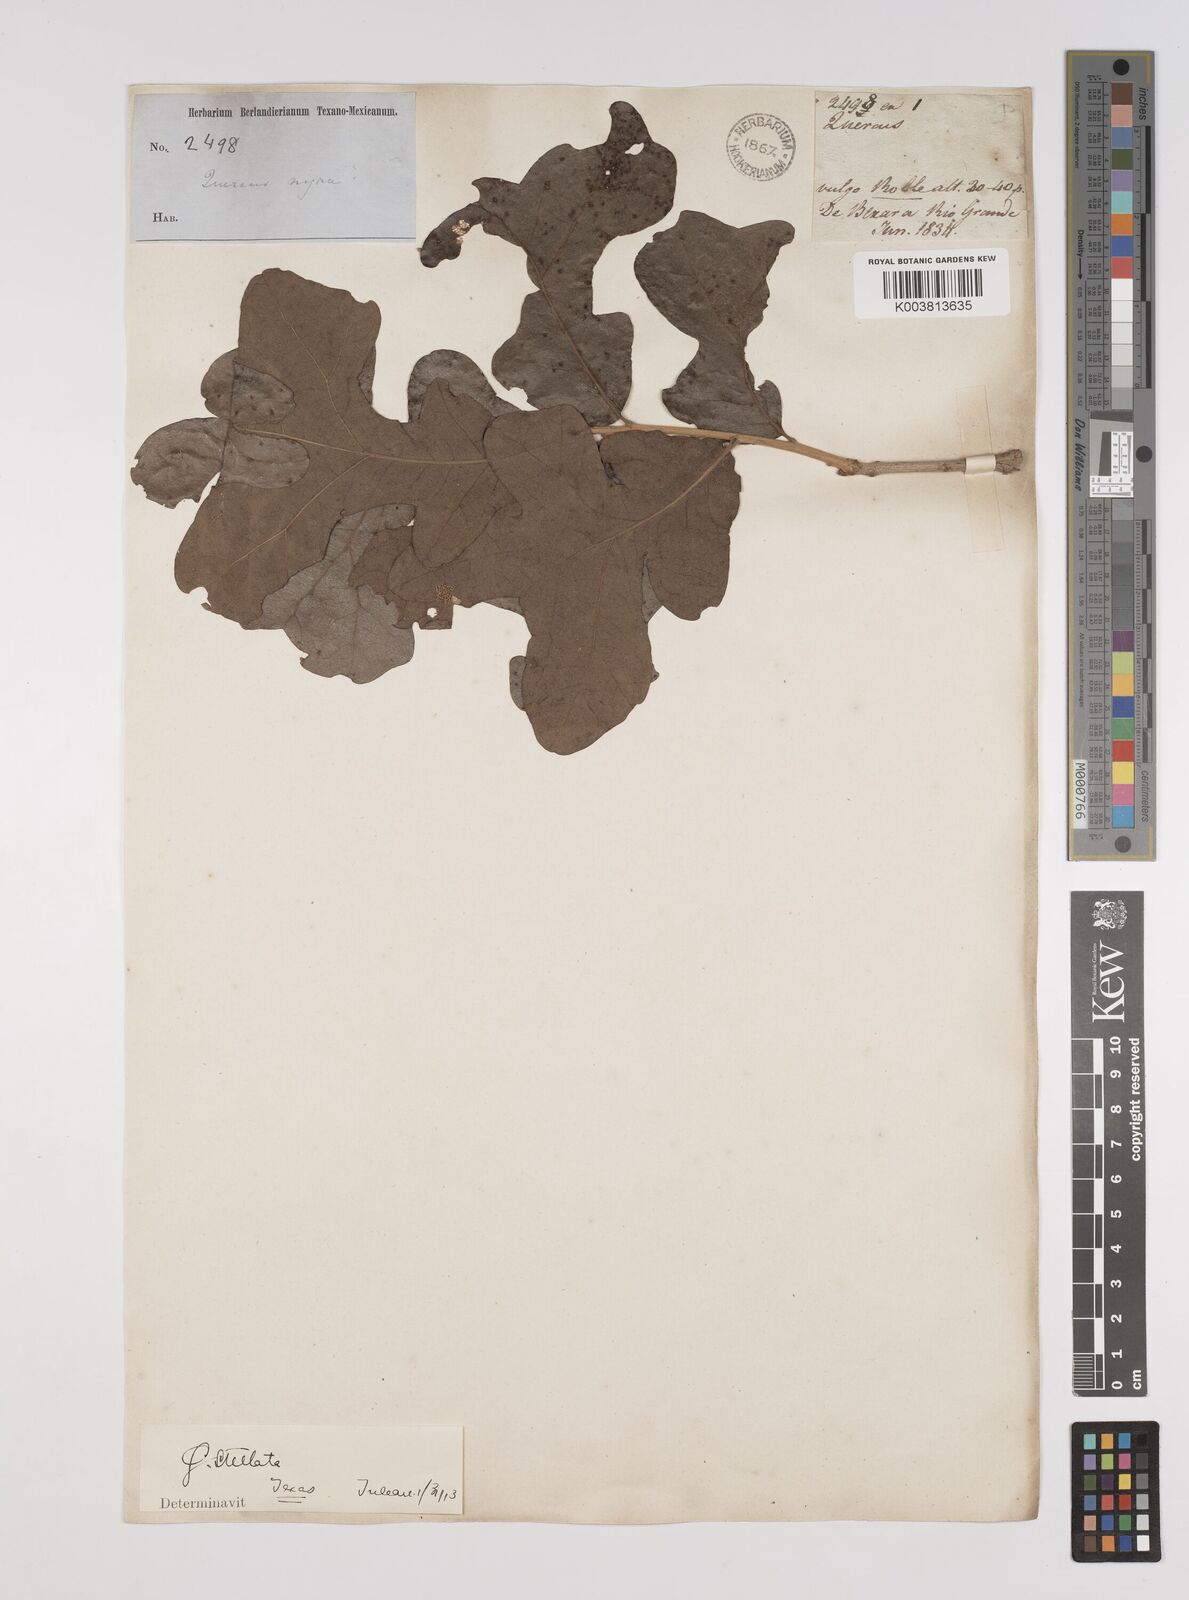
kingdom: Plantae
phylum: Tracheophyta
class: Magnoliopsida
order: Fagales
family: Fagaceae
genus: Quercus
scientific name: Quercus stellata
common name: Post oak
